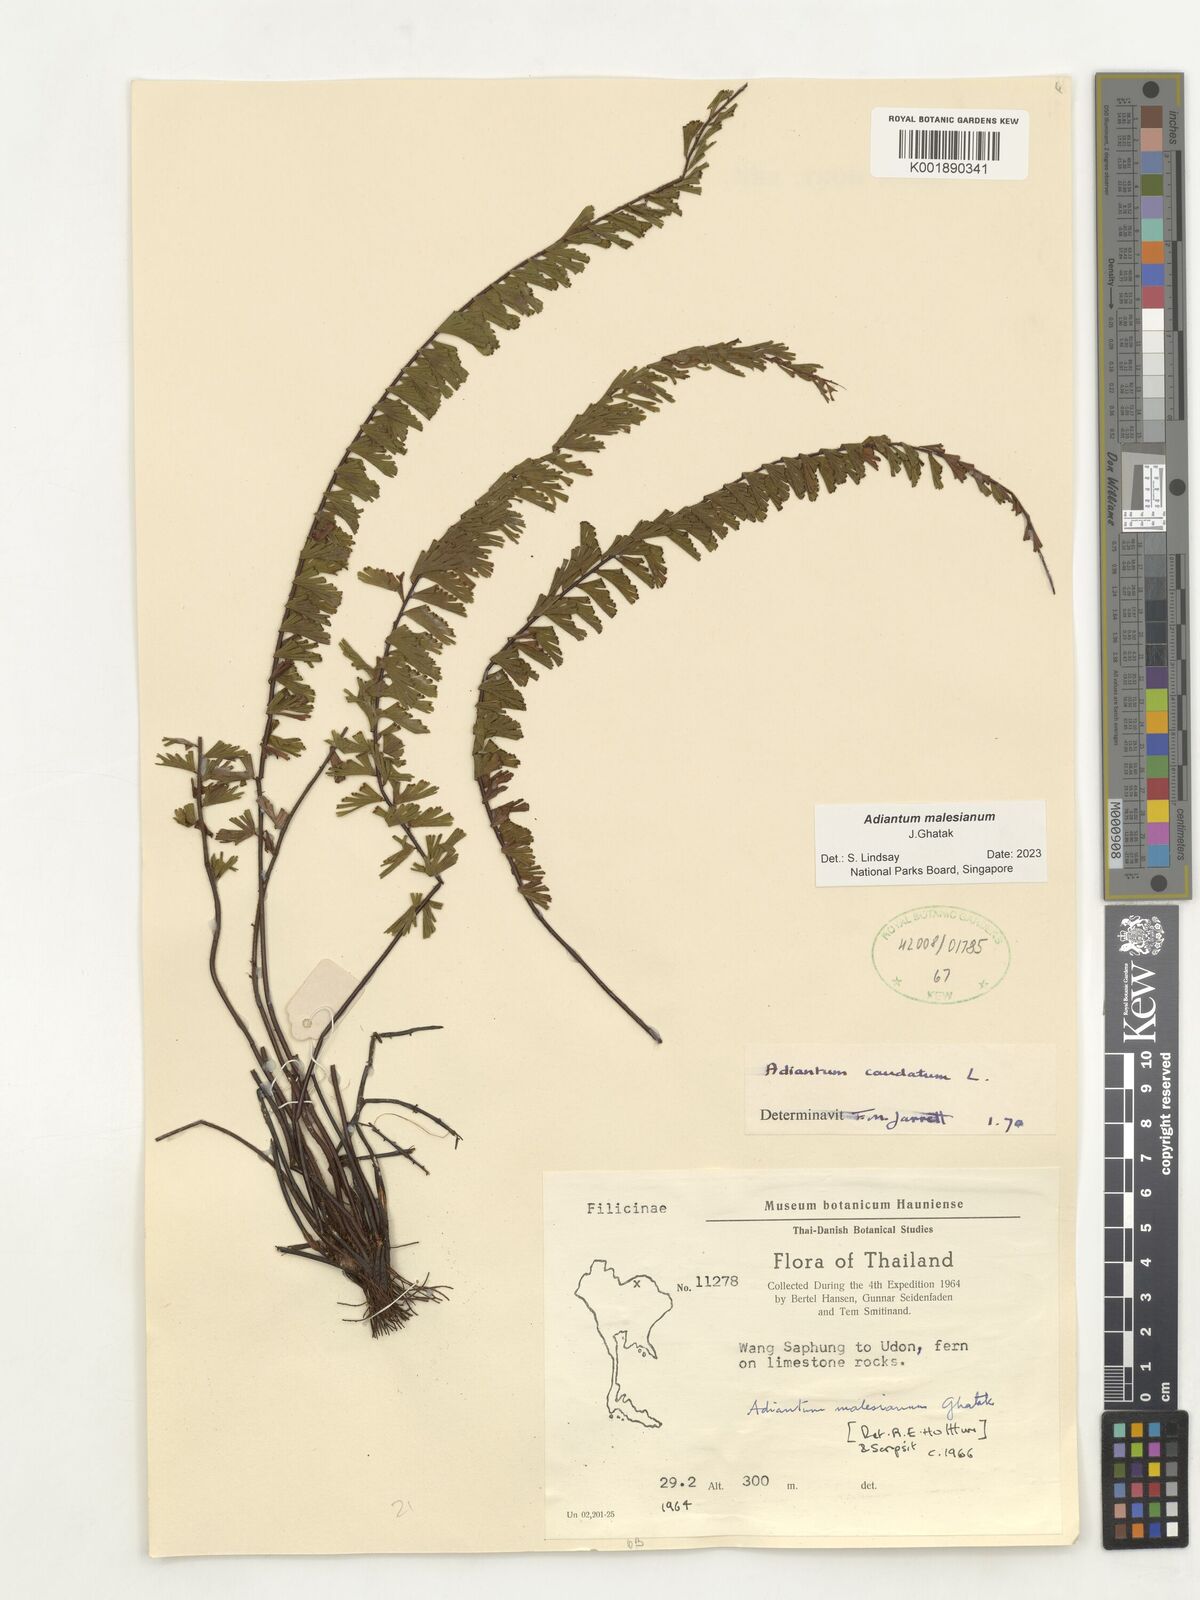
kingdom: Plantae
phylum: Tracheophyta
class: Polypodiopsida
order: Polypodiales
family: Pteridaceae
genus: Adiantum
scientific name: Adiantum ciliatum
